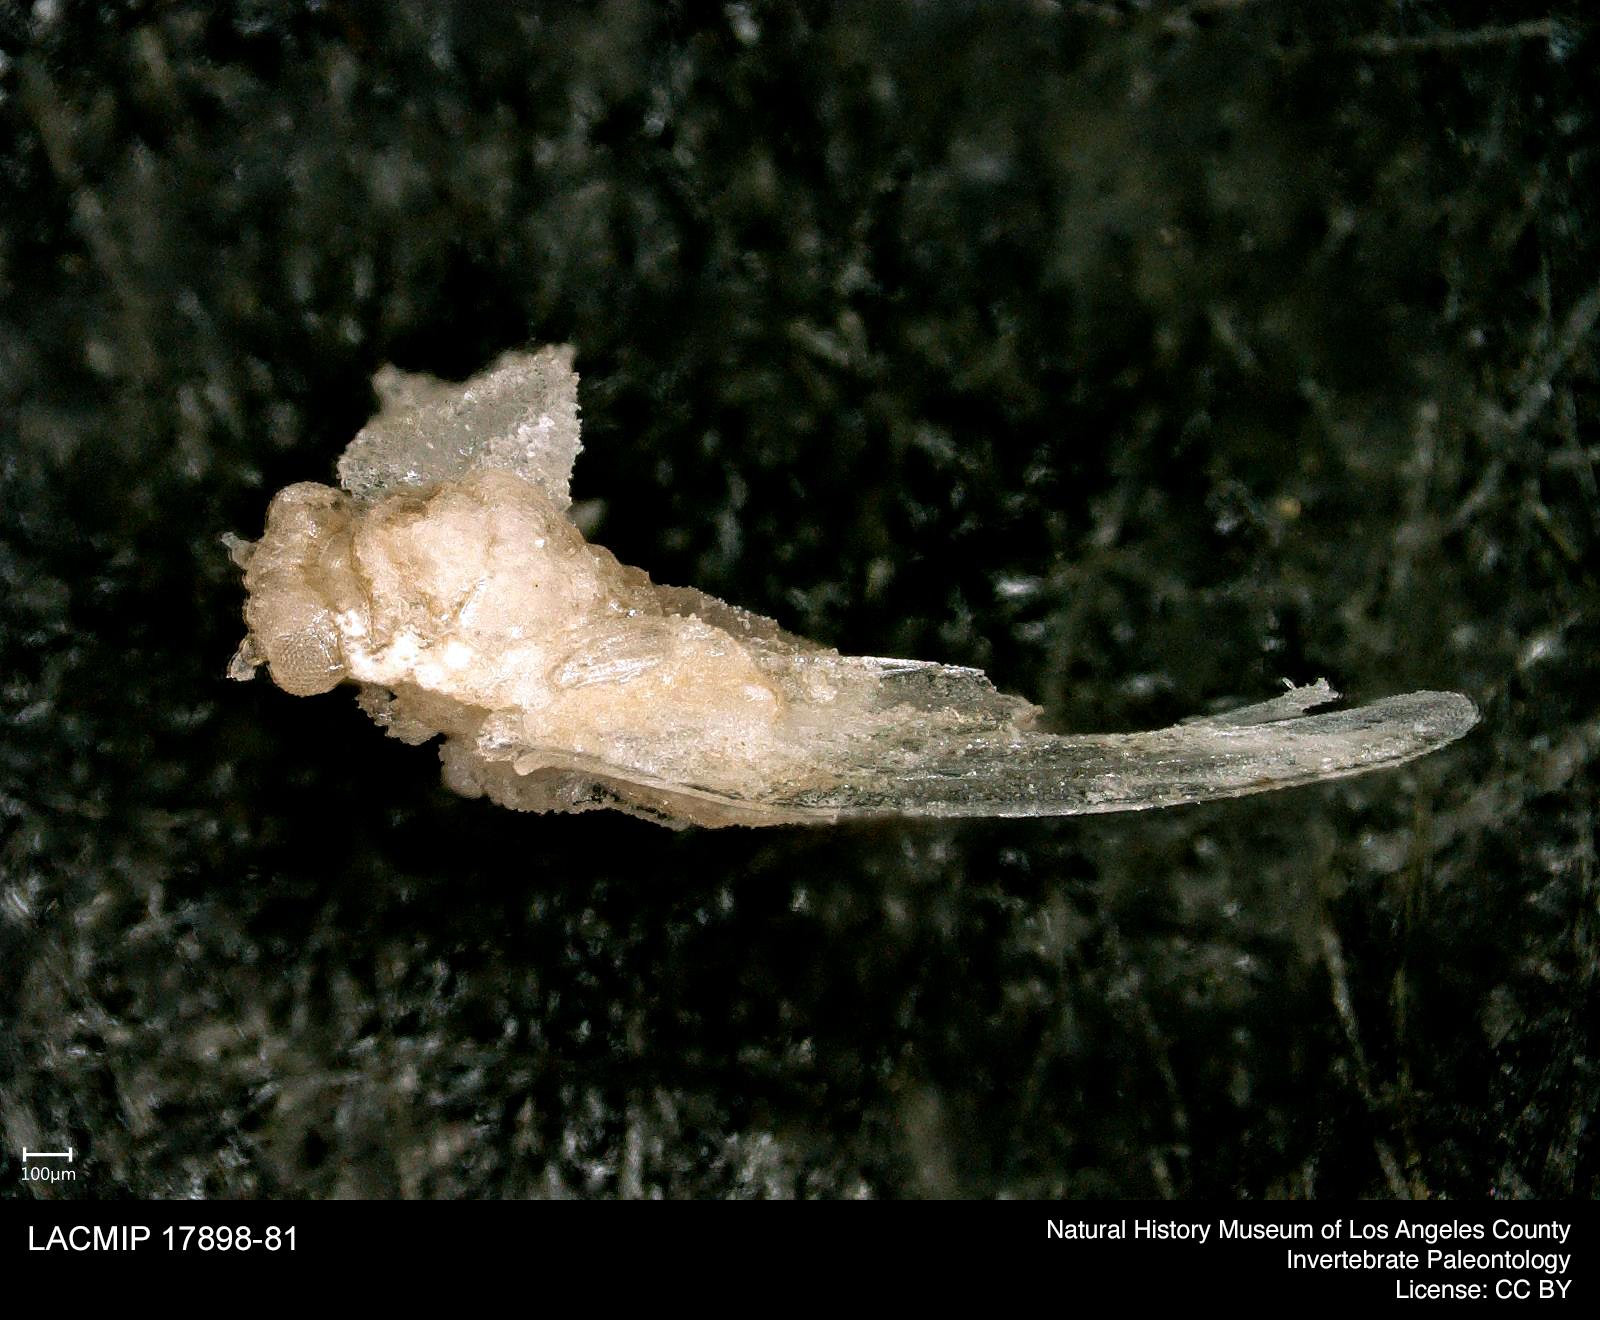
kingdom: Animalia
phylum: Arthropoda
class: Insecta
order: Hemiptera
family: Psyllidae
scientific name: Psyllidae
